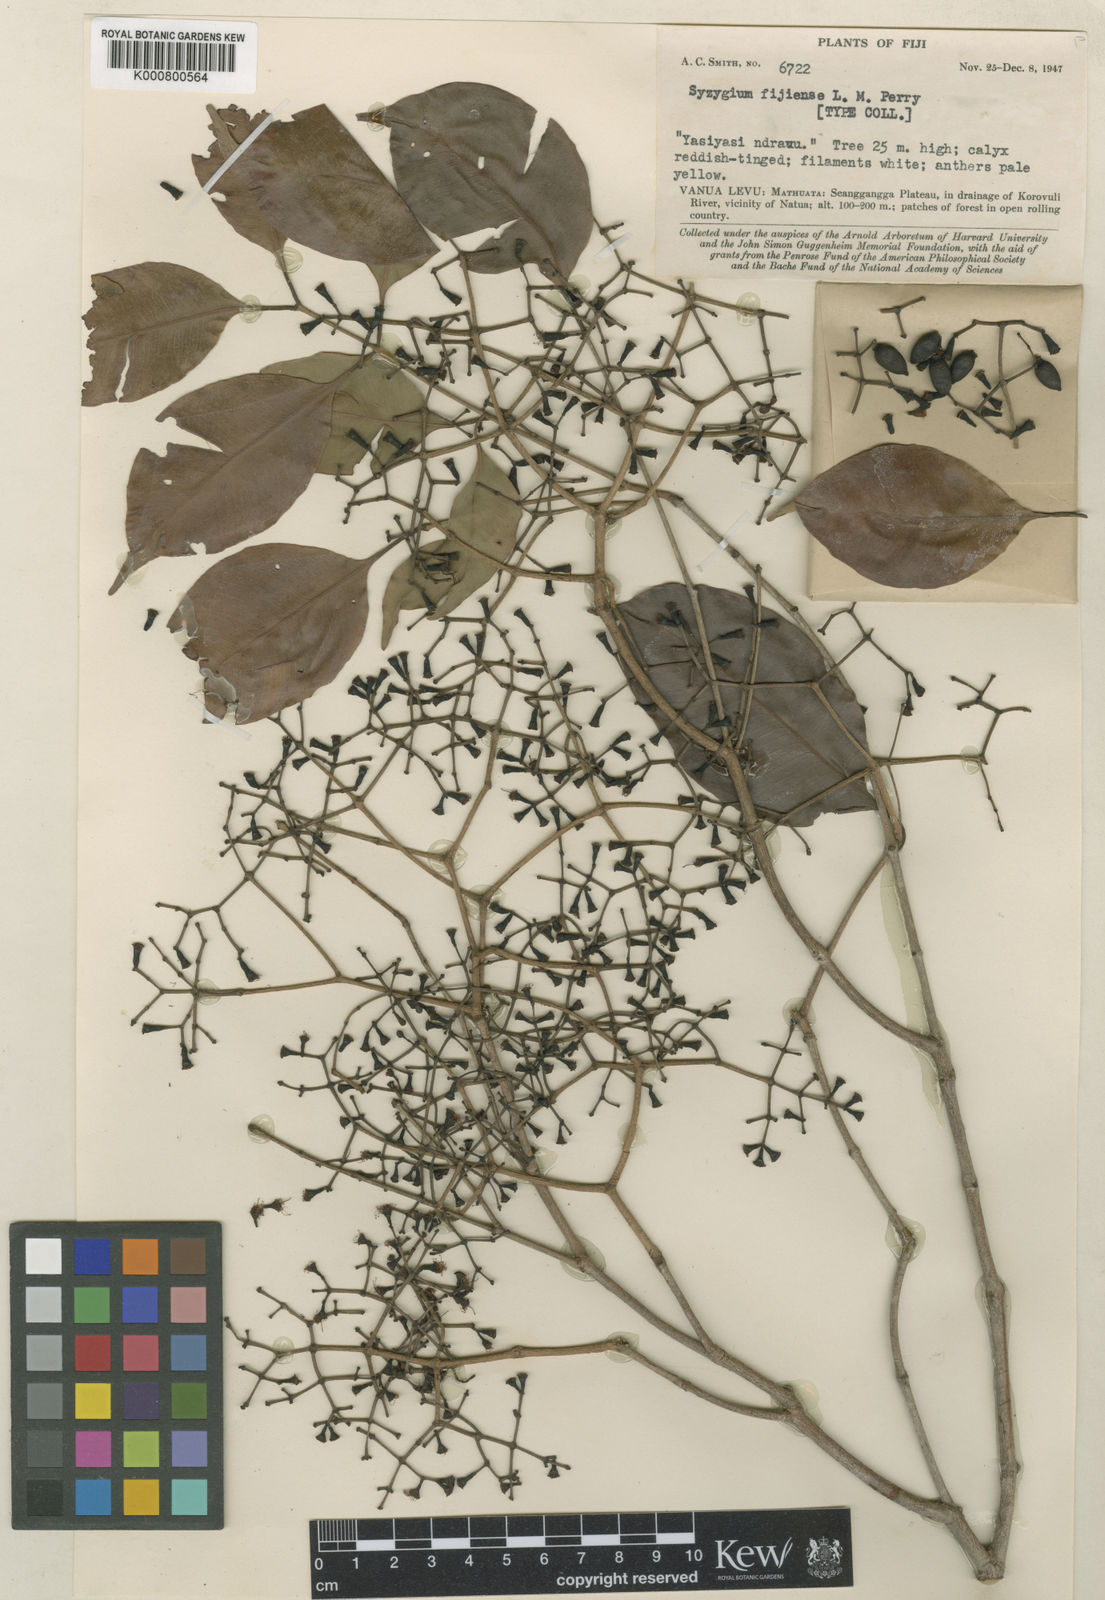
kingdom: Plantae
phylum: Tracheophyta
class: Magnoliopsida
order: Myrtales
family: Myrtaceae
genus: Syzygium
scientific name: Syzygium fijiense
